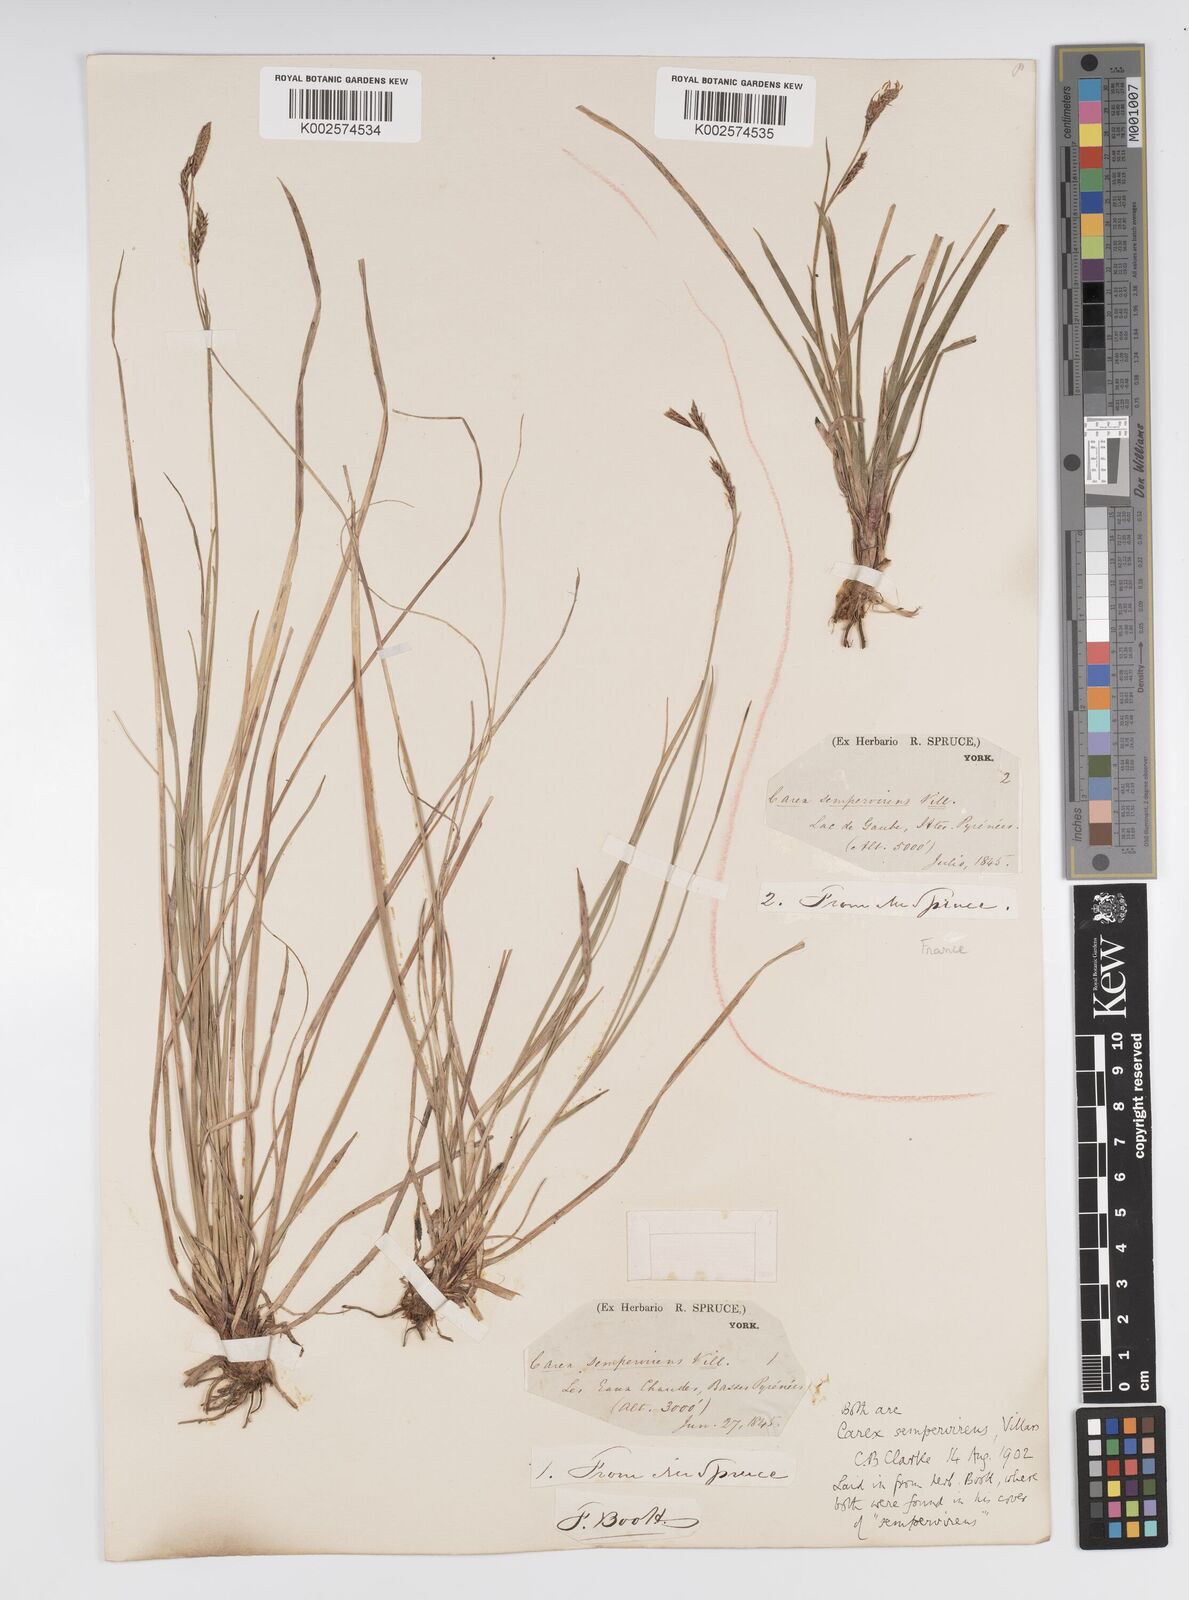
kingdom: Plantae
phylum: Tracheophyta
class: Liliopsida
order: Poales
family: Cyperaceae
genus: Carex
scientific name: Carex sempervirens
